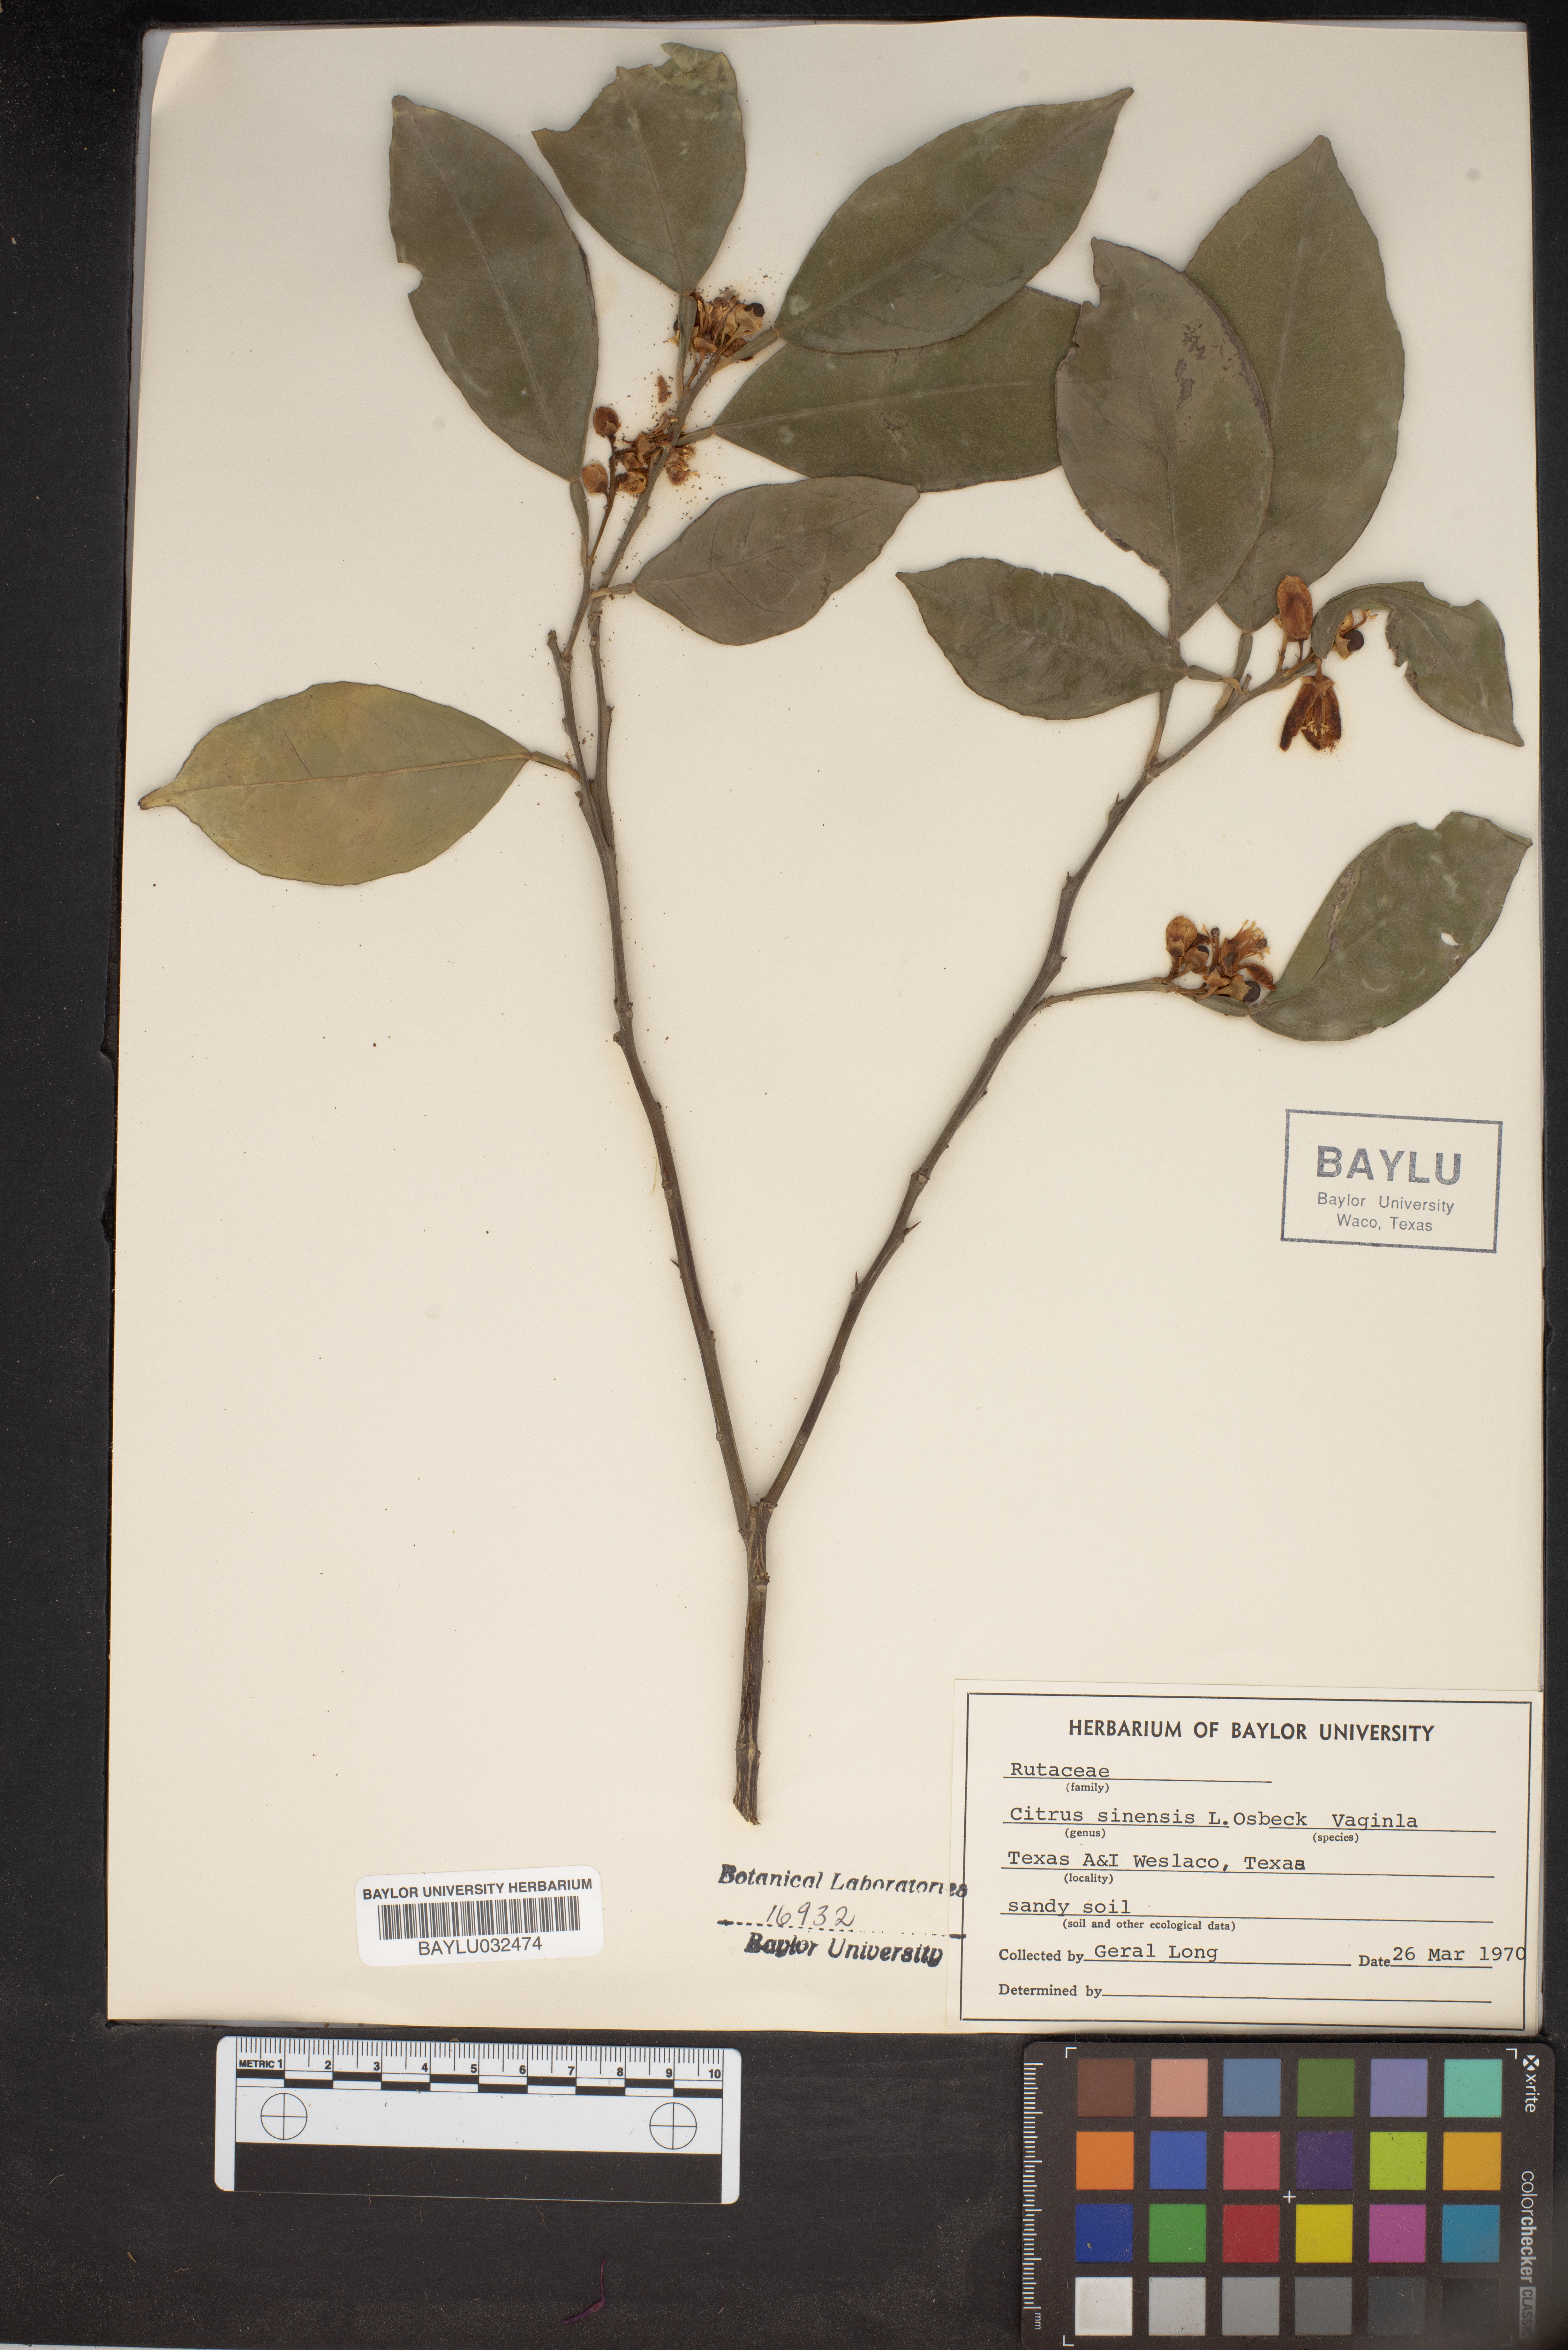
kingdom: Plantae
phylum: Tracheophyta
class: Magnoliopsida
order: Sapindales
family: Rutaceae
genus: Citrus
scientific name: Citrus aurantium
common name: Sour orange
